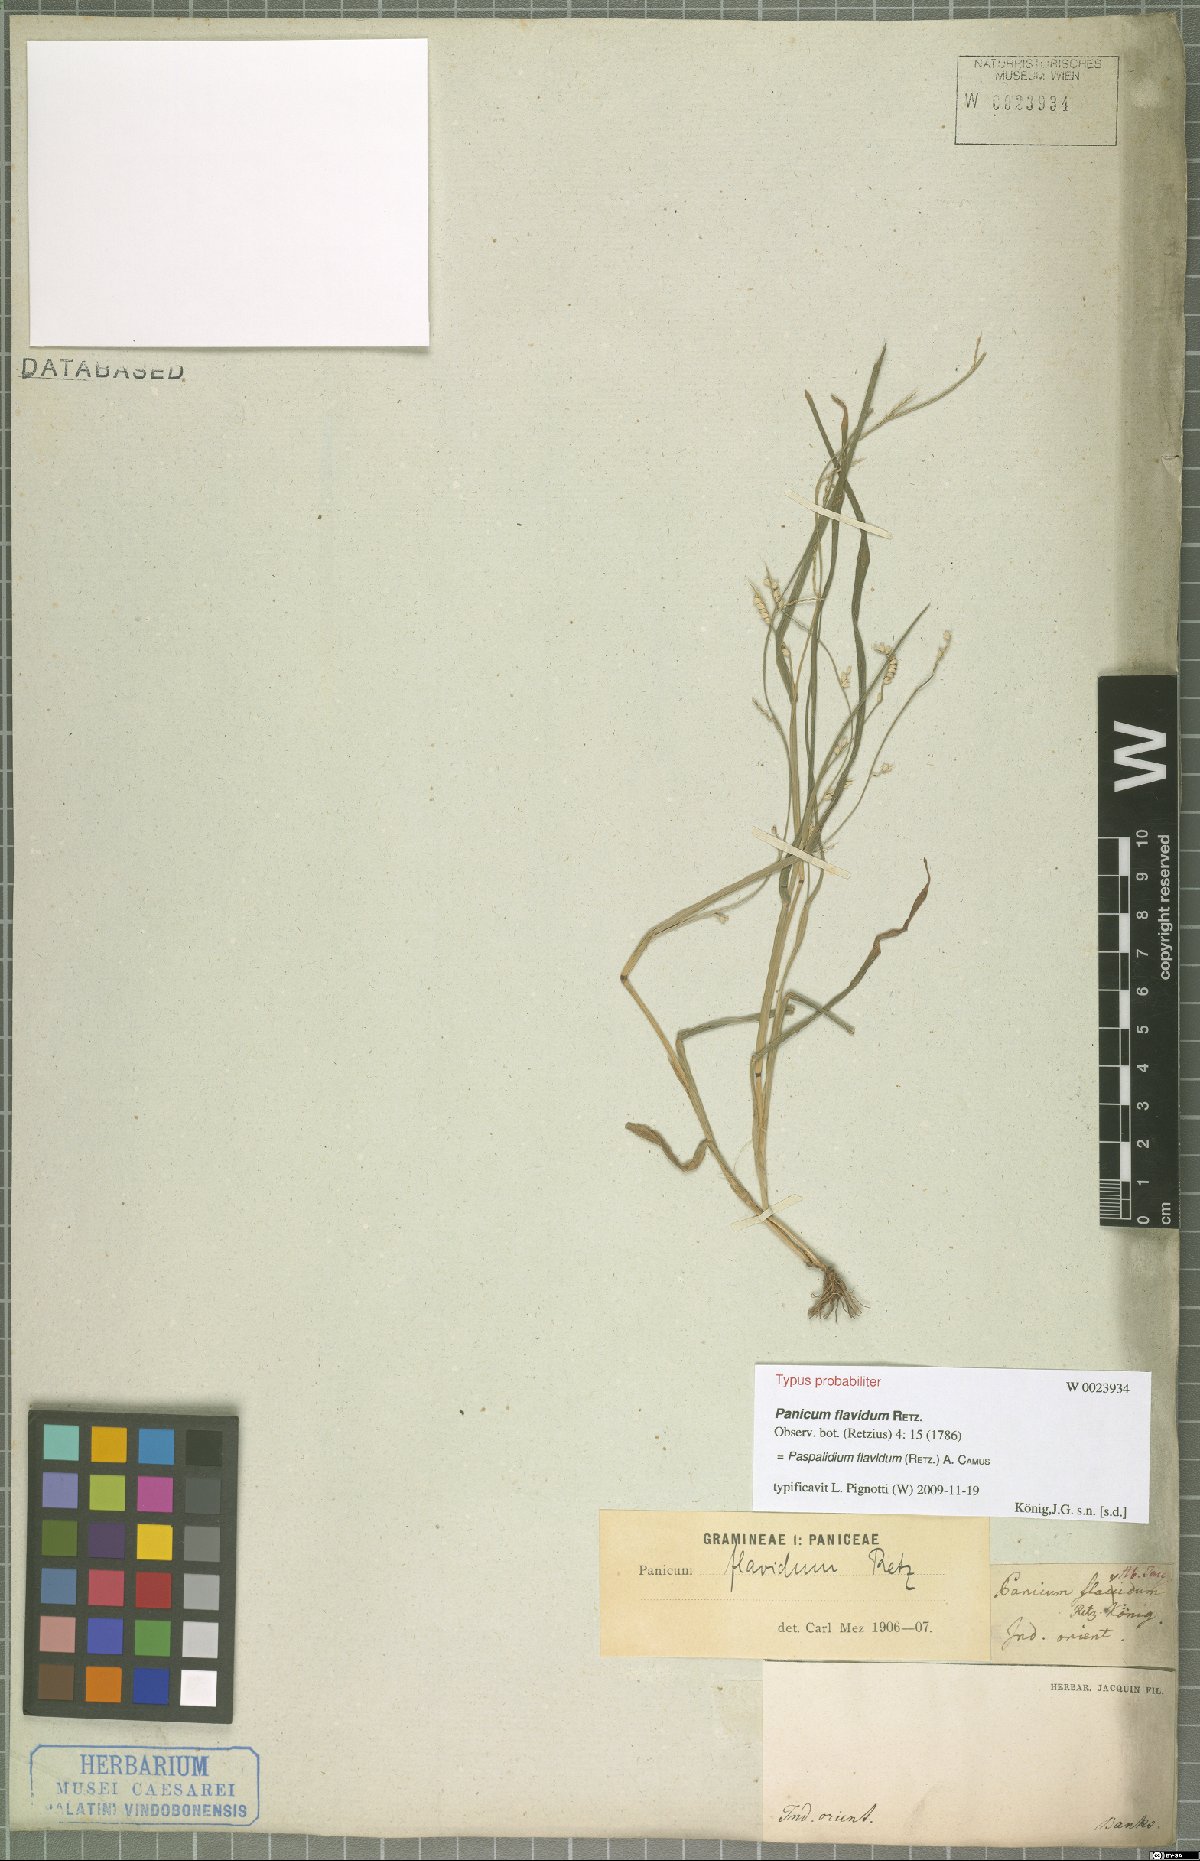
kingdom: Plantae
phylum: Tracheophyta
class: Liliopsida
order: Poales
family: Poaceae
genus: Setaria
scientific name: Setaria flavida
